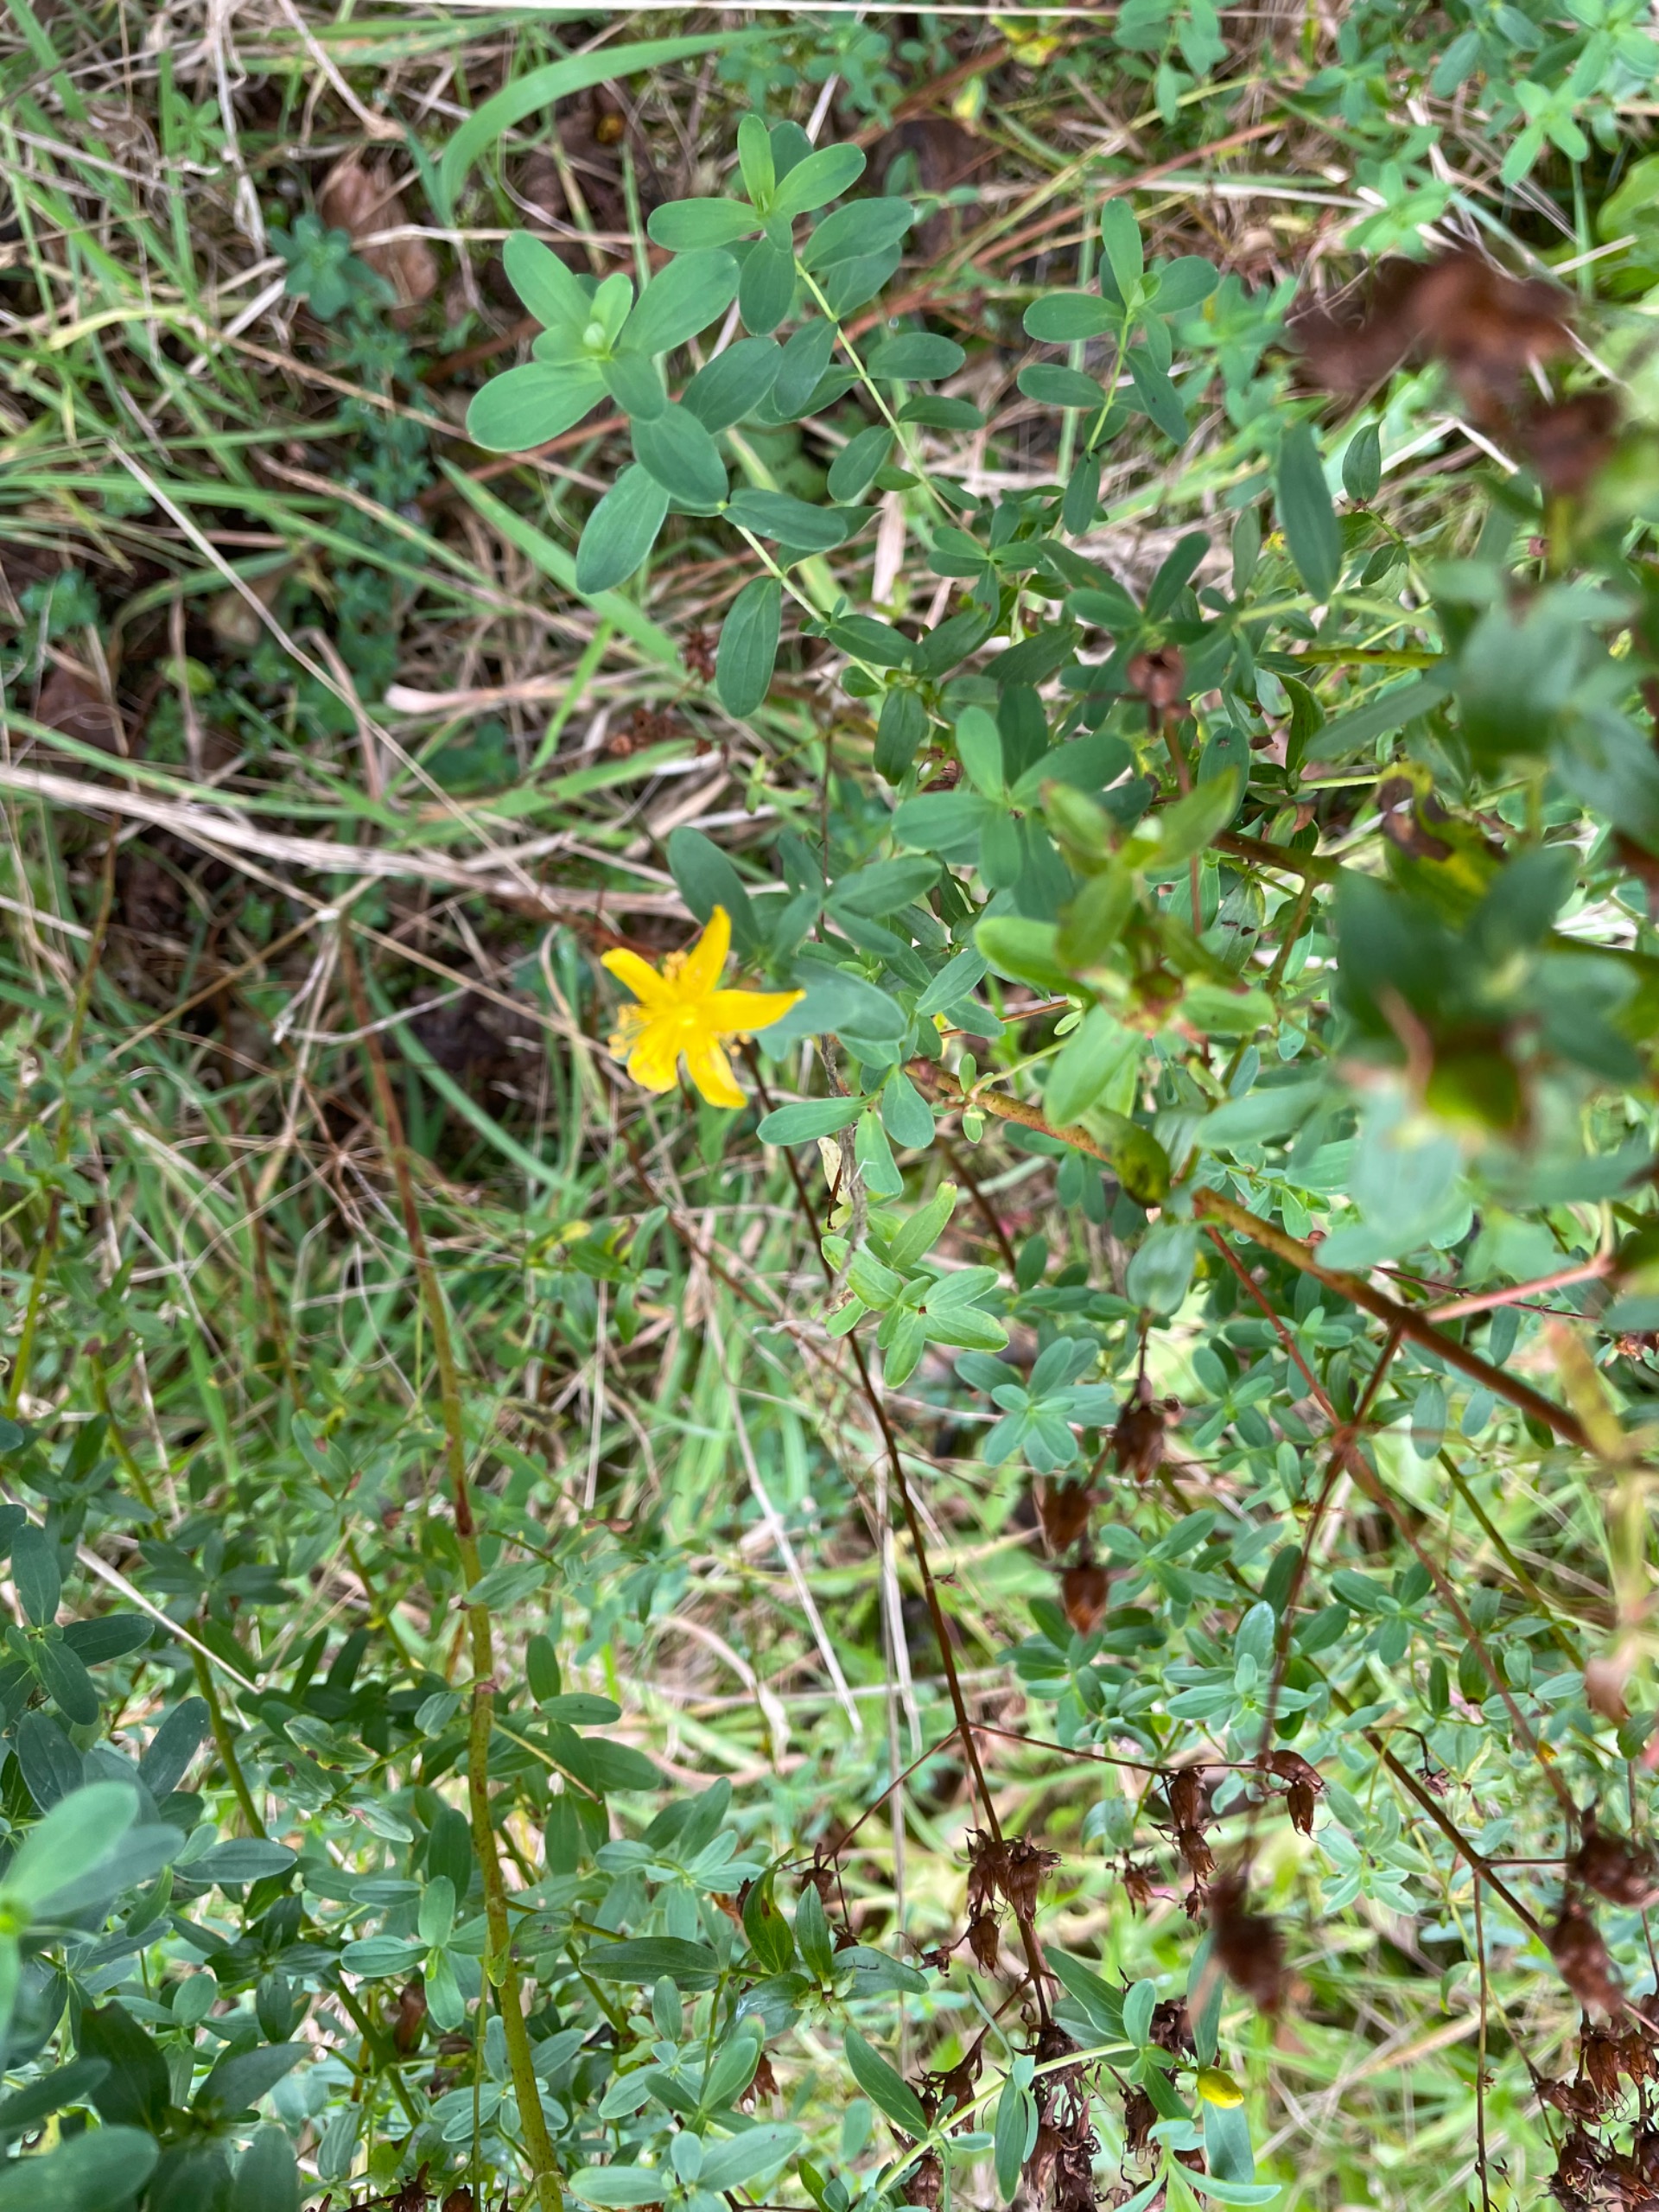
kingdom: Plantae
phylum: Tracheophyta
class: Magnoliopsida
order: Malpighiales
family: Hypericaceae
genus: Hypericum
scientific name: Hypericum perforatum
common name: Prikbladet perikon
